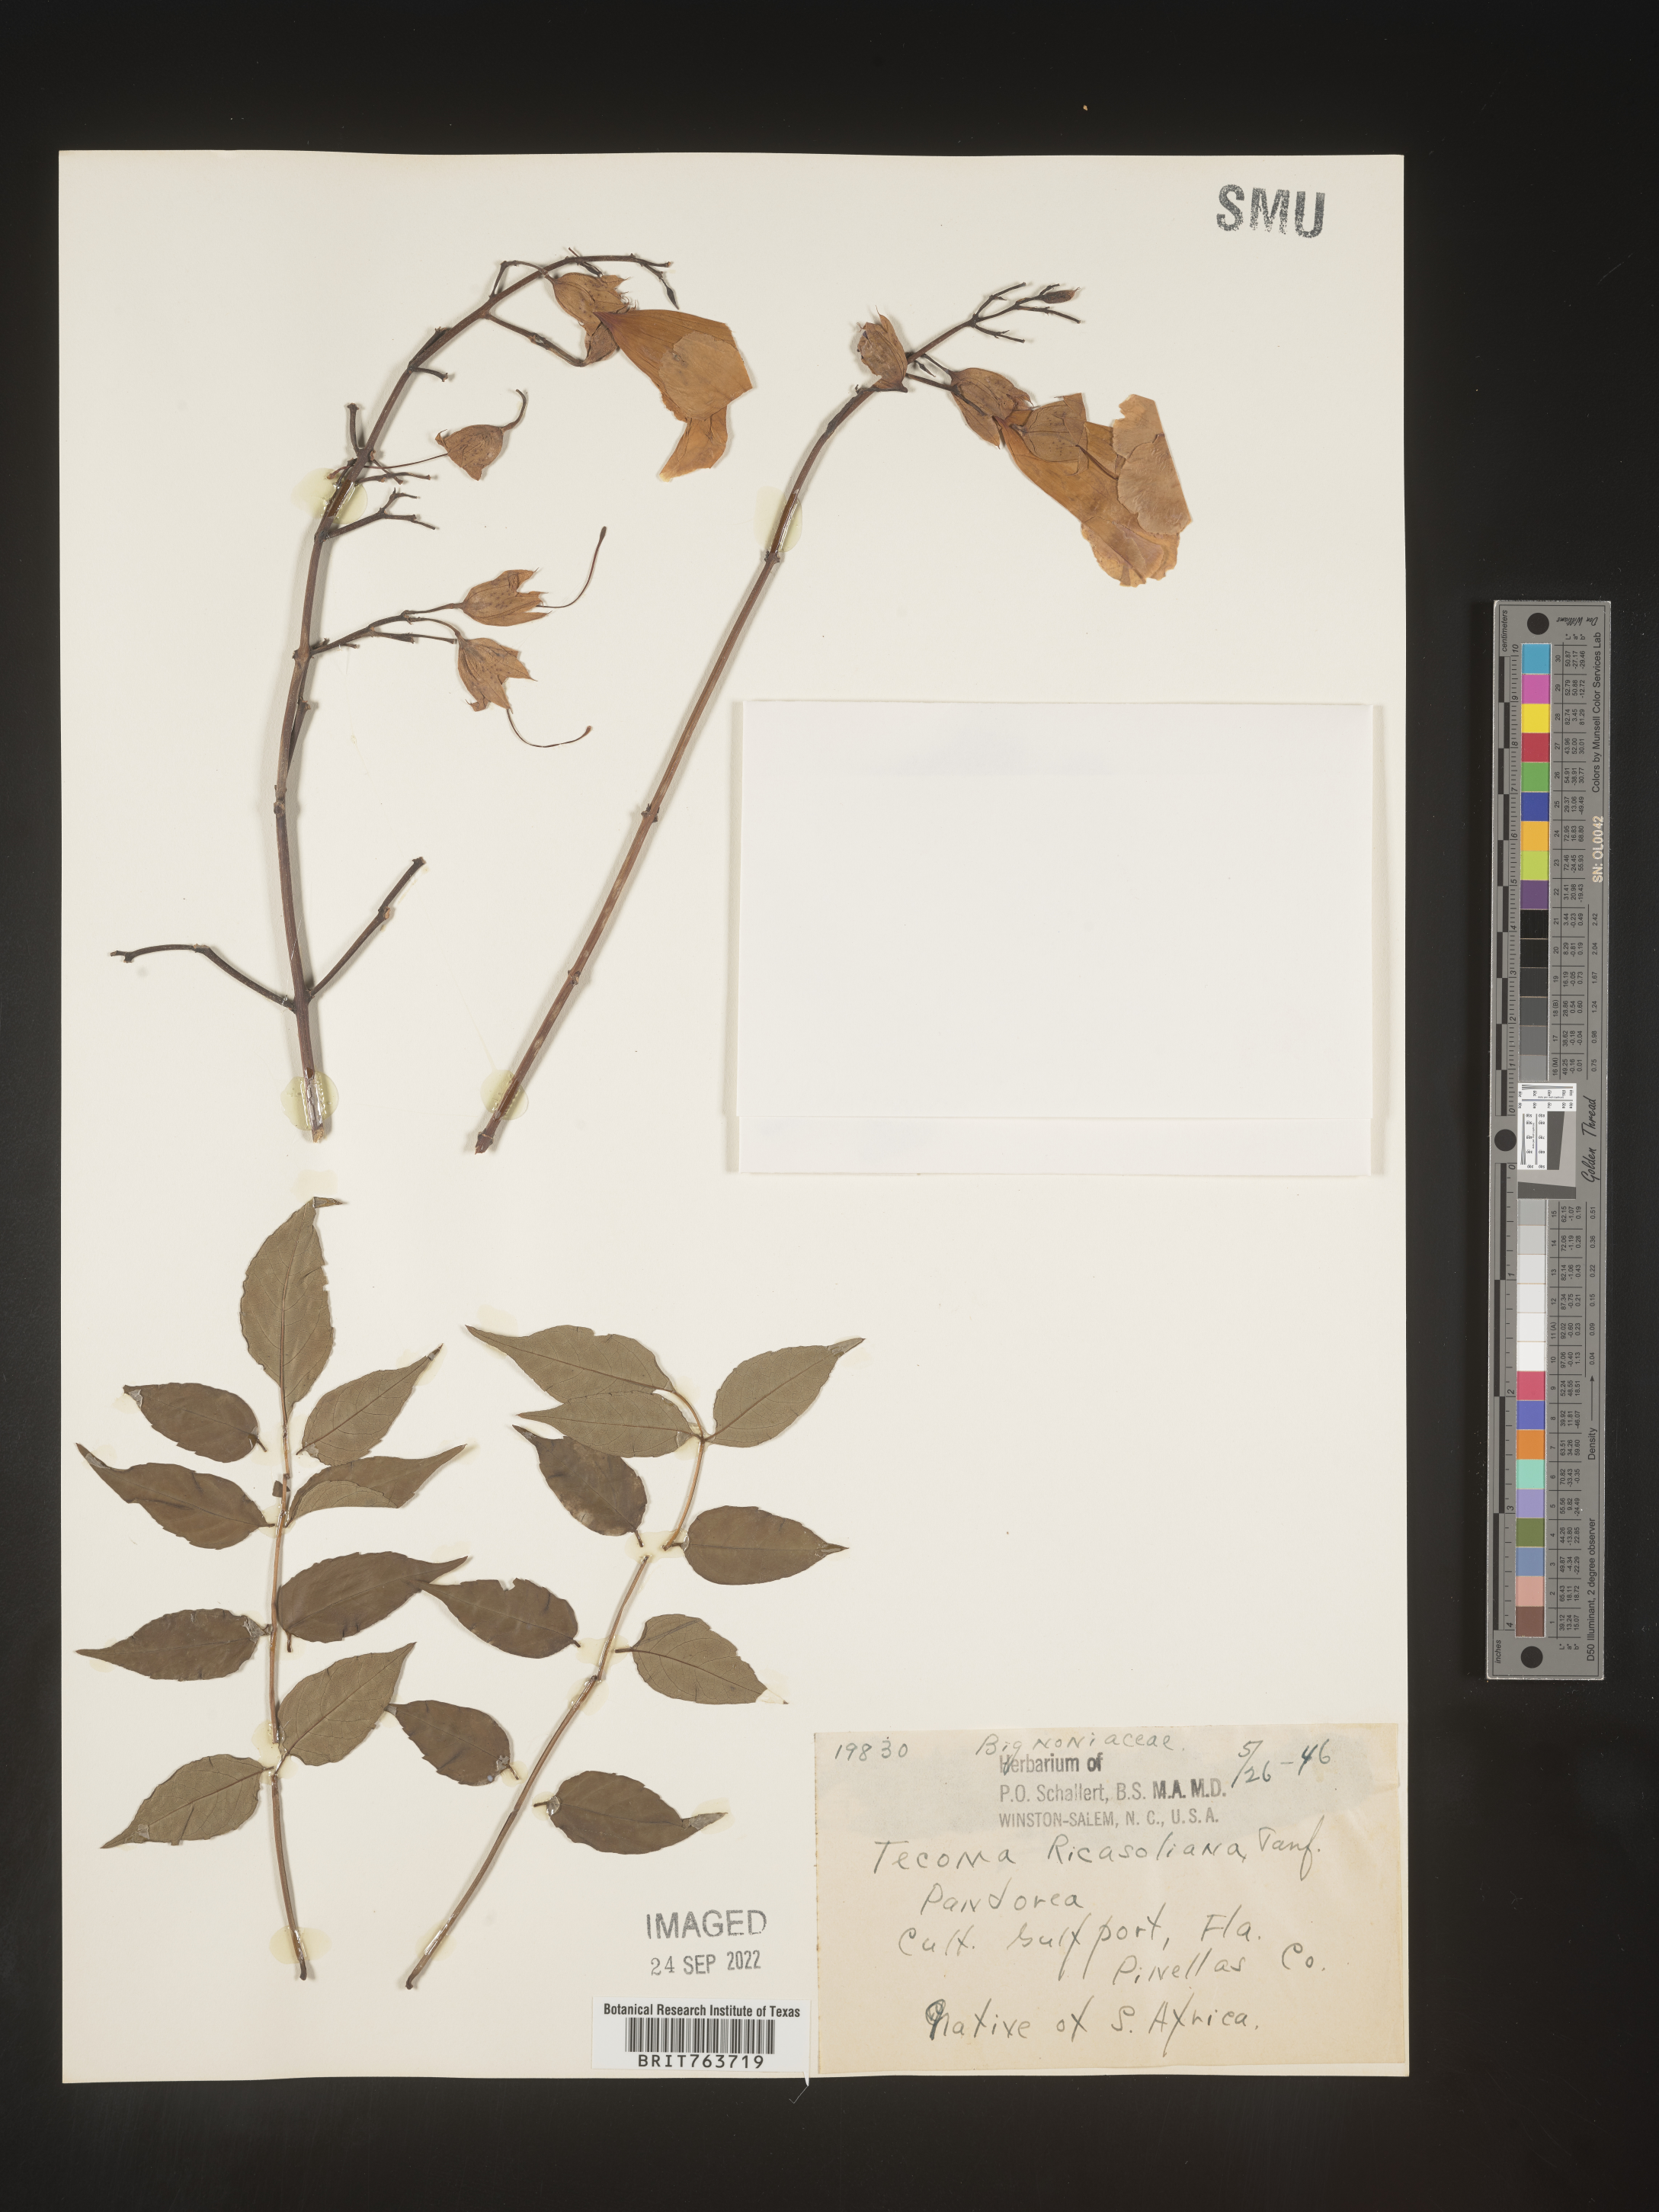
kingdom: Plantae
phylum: Tracheophyta
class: Magnoliopsida
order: Lamiales
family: Bignoniaceae
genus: Podranea
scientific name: Podranea
